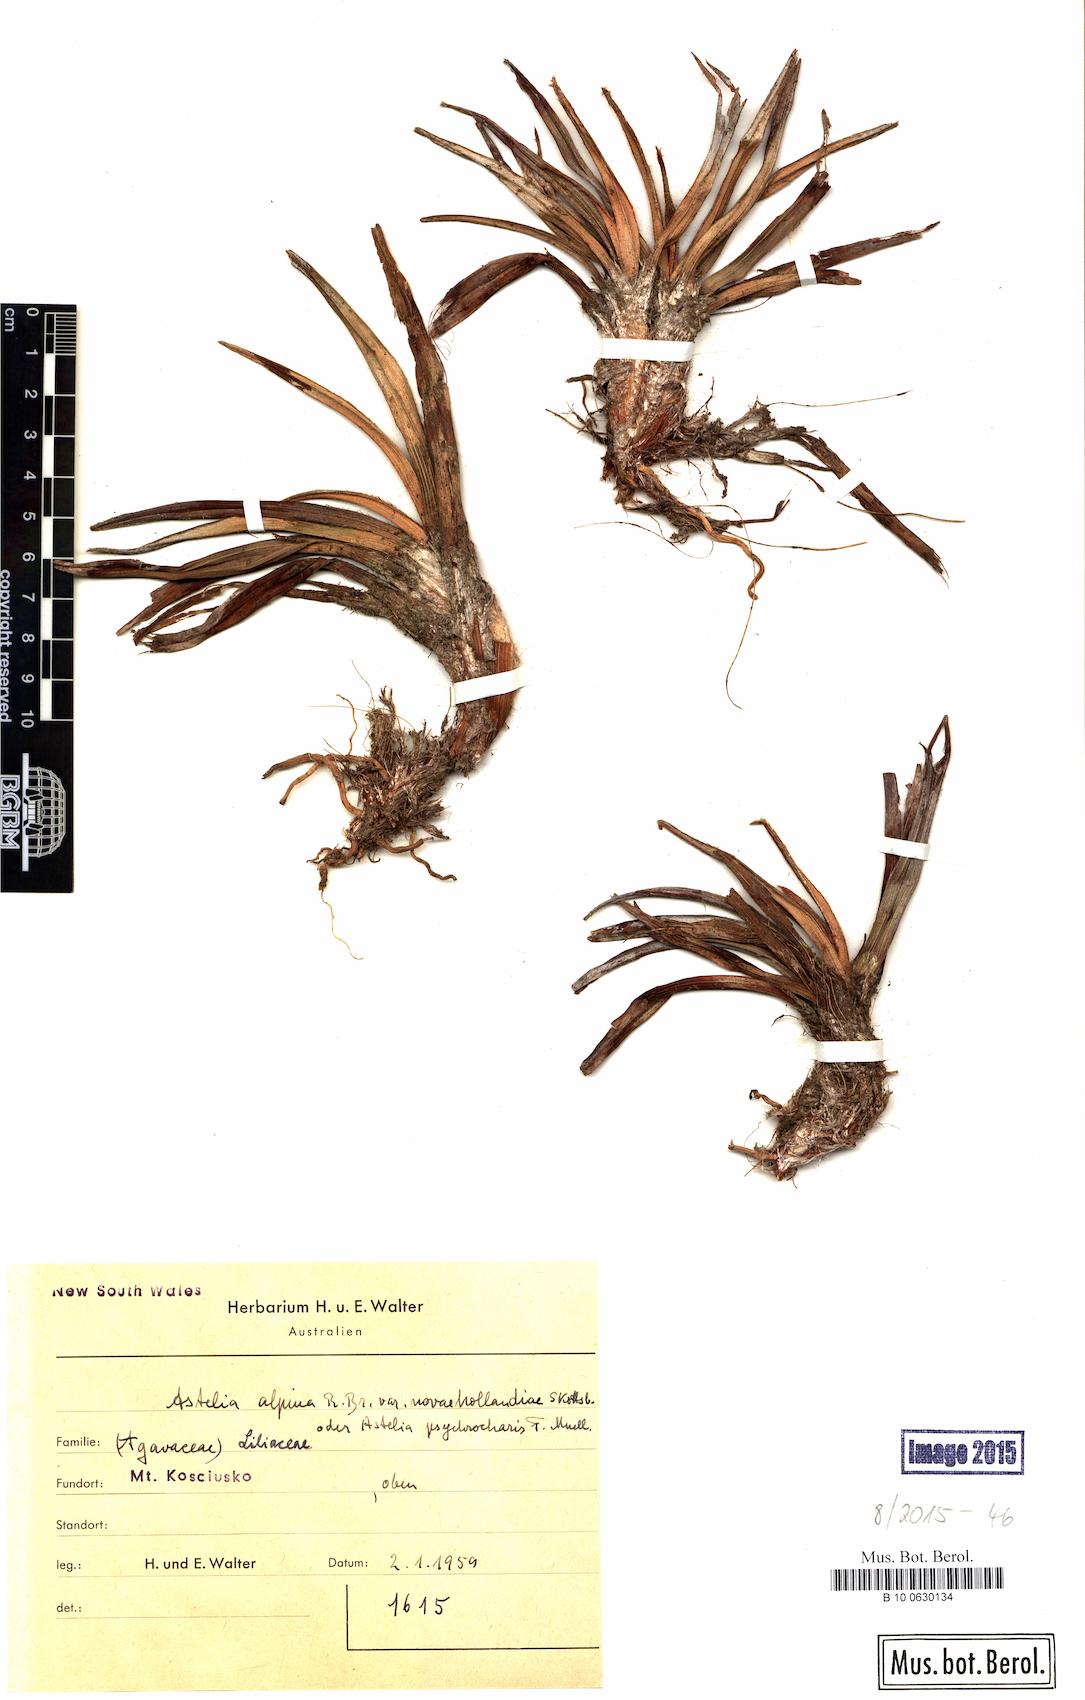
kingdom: Plantae
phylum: Tracheophyta
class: Liliopsida
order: Asparagales
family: Asteliaceae
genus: Astelia
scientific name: Astelia banksii
